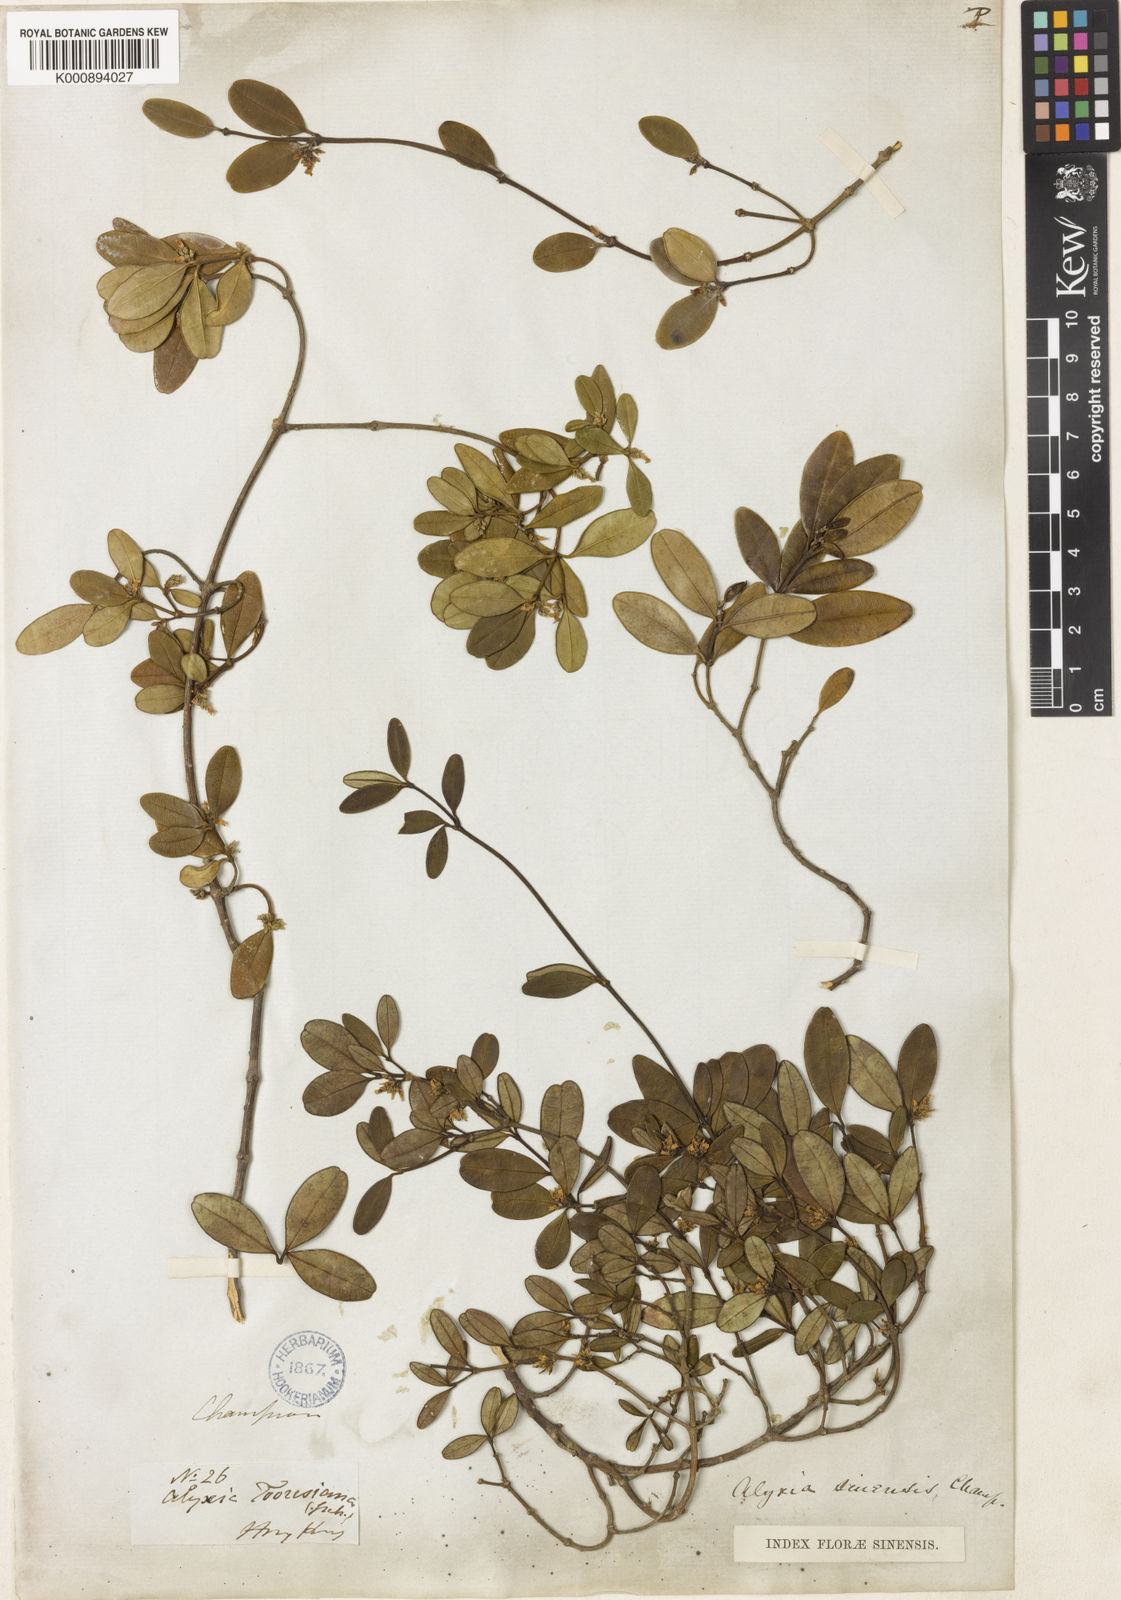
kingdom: Plantae
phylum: Tracheophyta
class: Magnoliopsida
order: Gentianales
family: Apocynaceae
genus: Alyxia
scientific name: Alyxia sinensis
